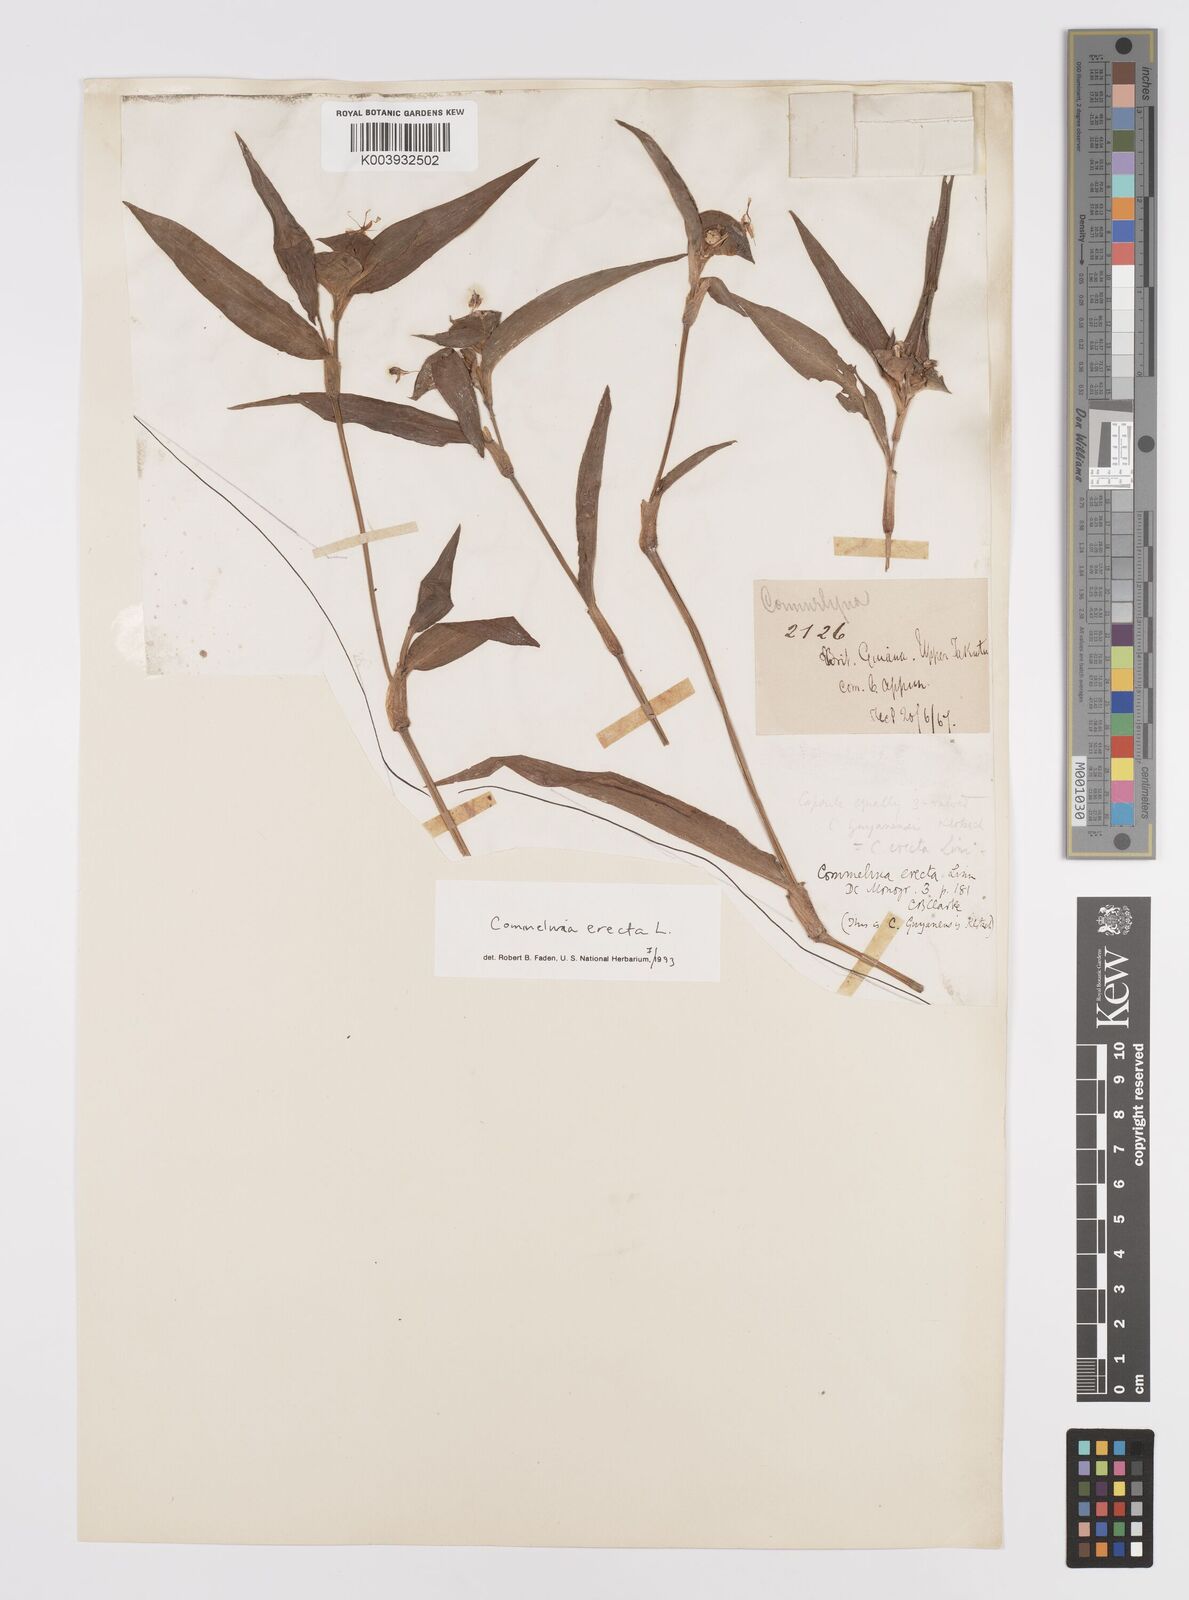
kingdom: Plantae
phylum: Tracheophyta
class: Liliopsida
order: Commelinales
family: Commelinaceae
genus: Commelina
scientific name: Commelina erecta
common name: Blousel blommetjie
